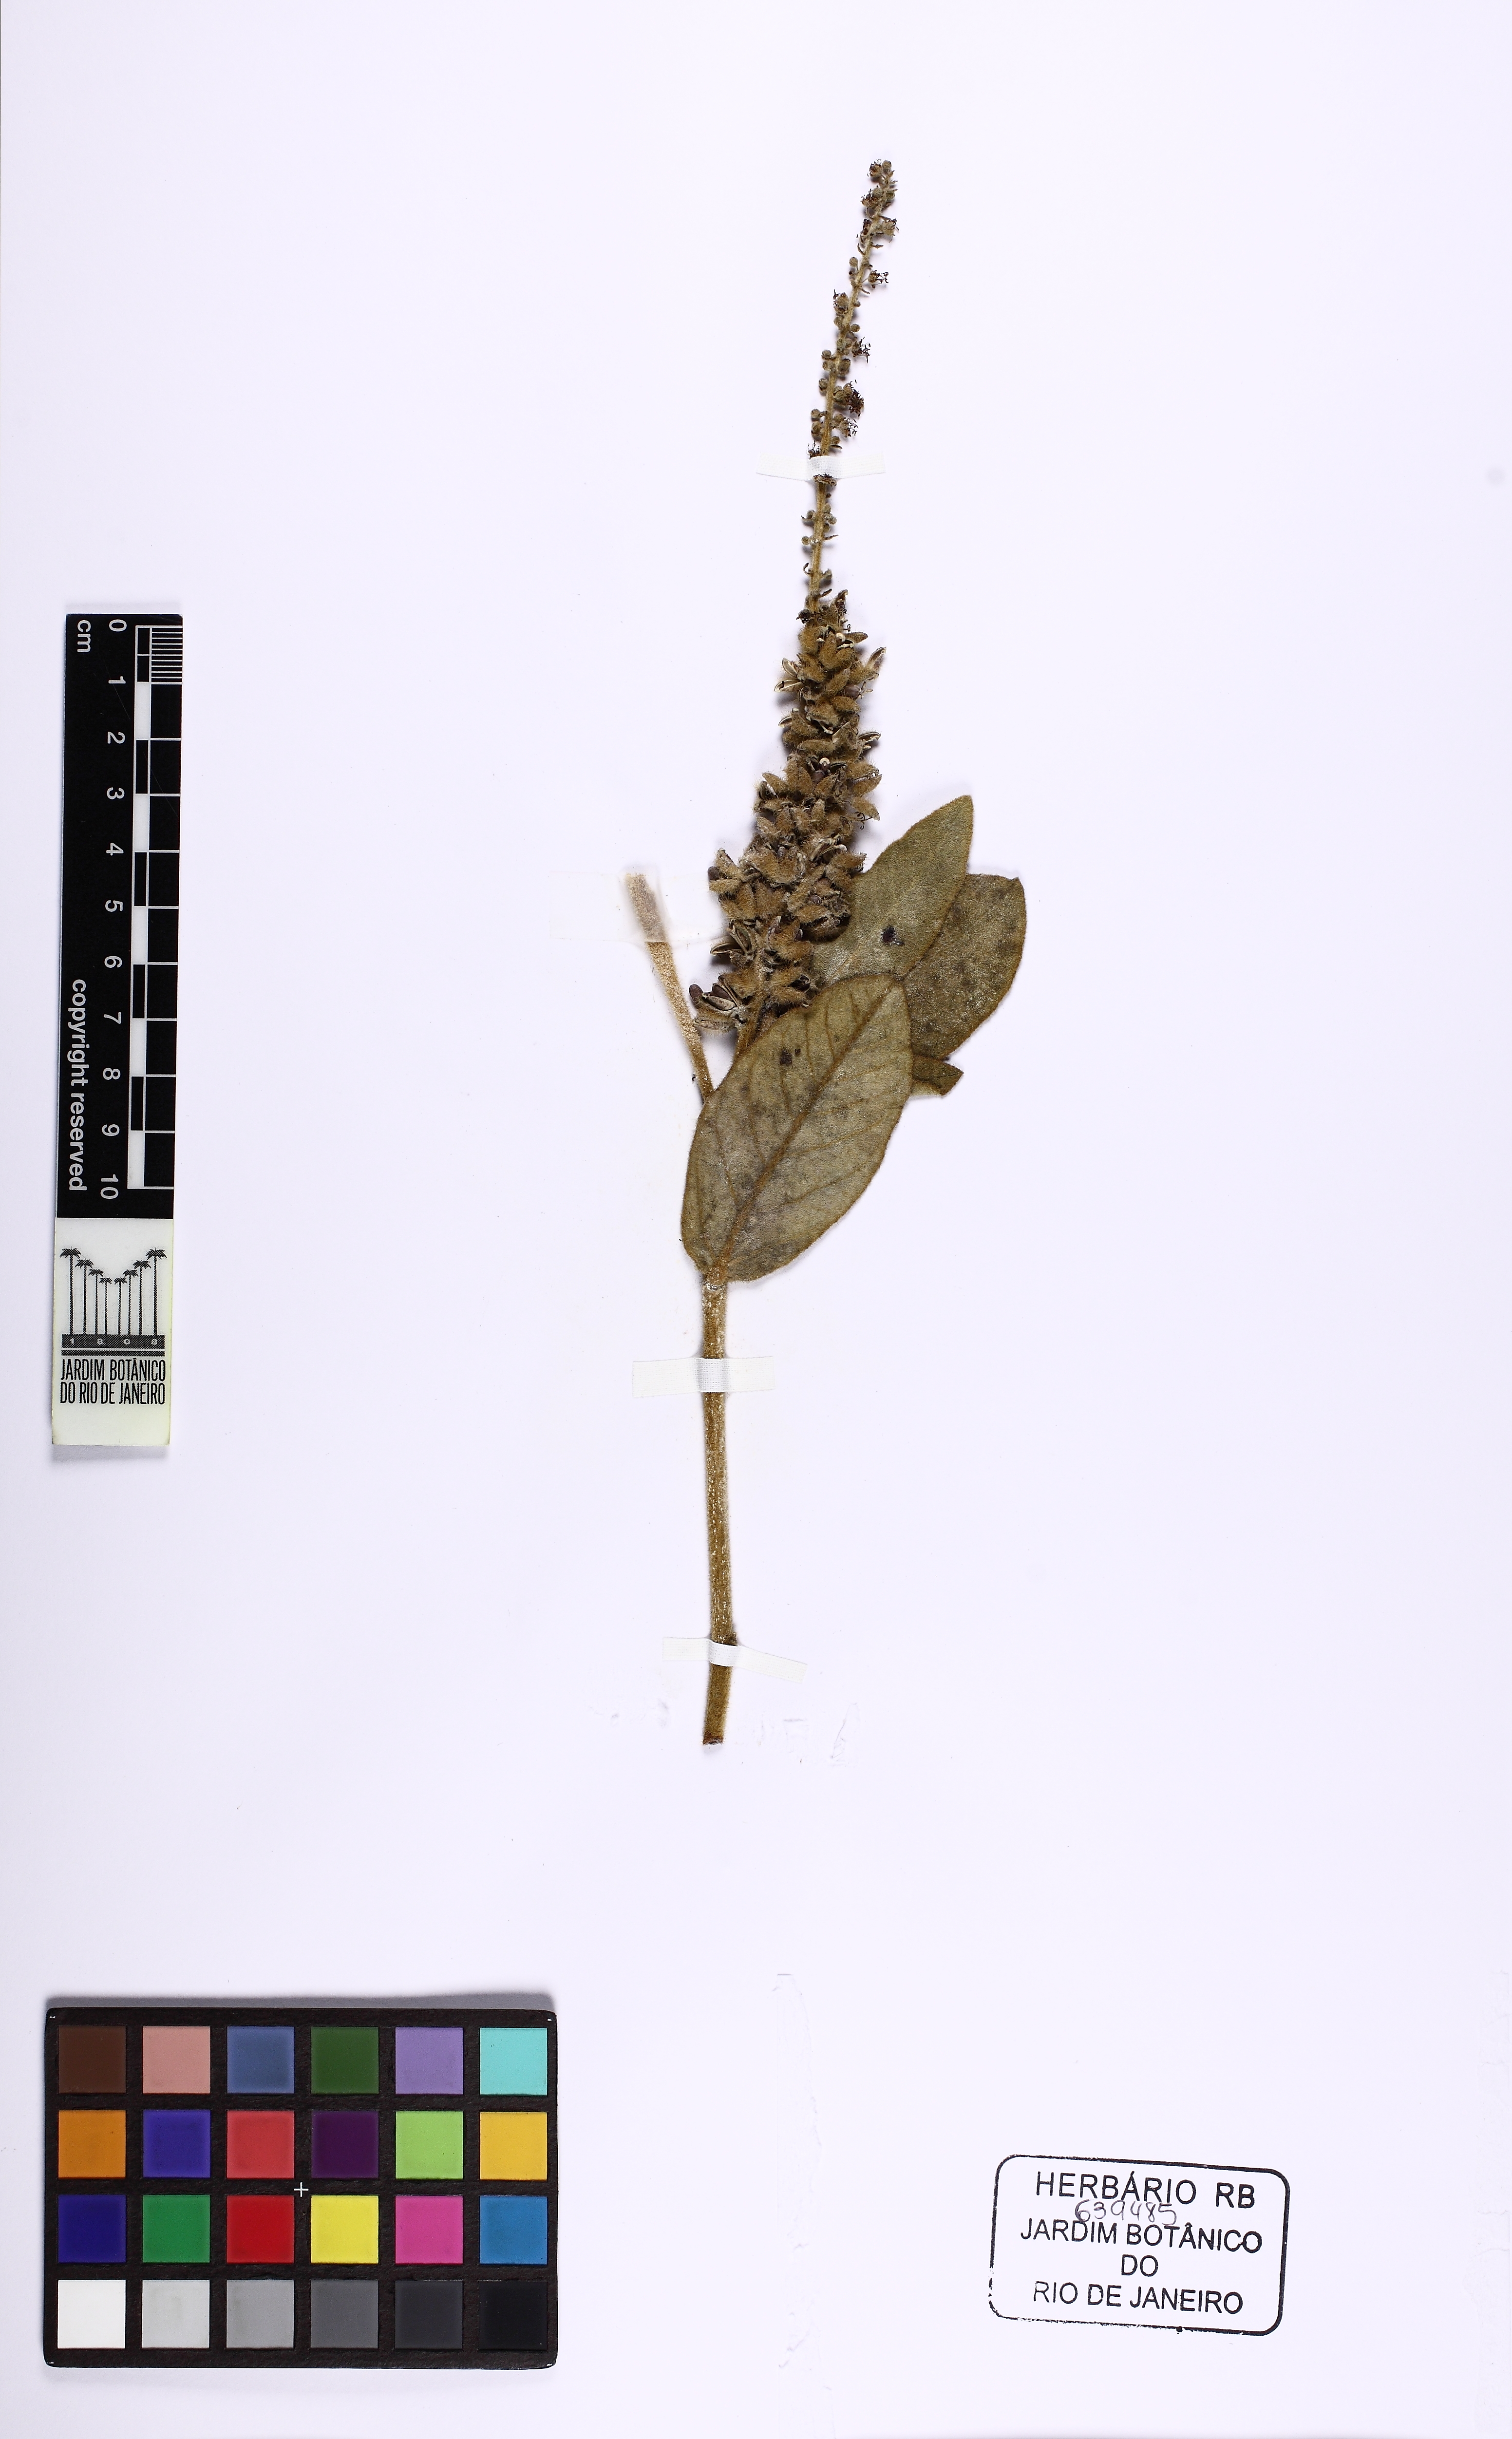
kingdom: Plantae
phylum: Tracheophyta
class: Magnoliopsida
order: Malpighiales
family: Euphorbiaceae
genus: Croton
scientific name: Croton grandivelum
